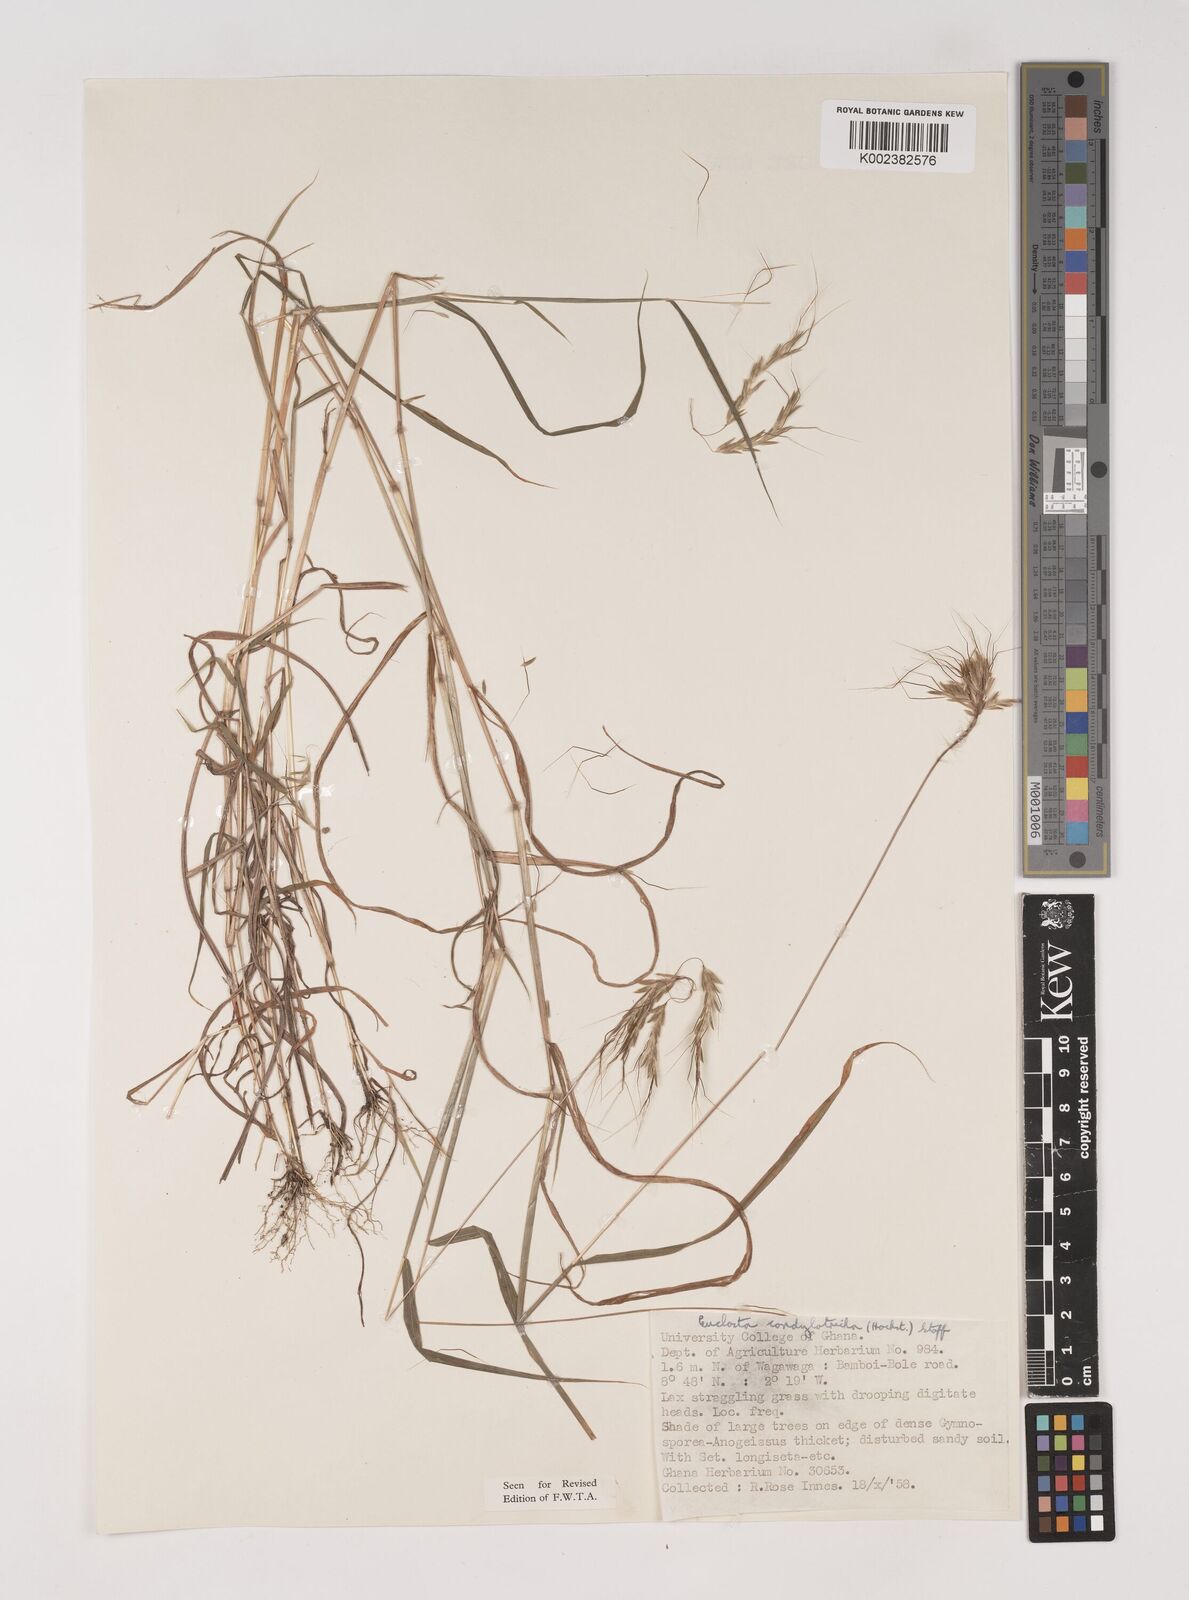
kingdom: Plantae
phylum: Tracheophyta
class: Liliopsida
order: Poales
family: Poaceae
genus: Euclasta
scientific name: Euclasta condylotricha
